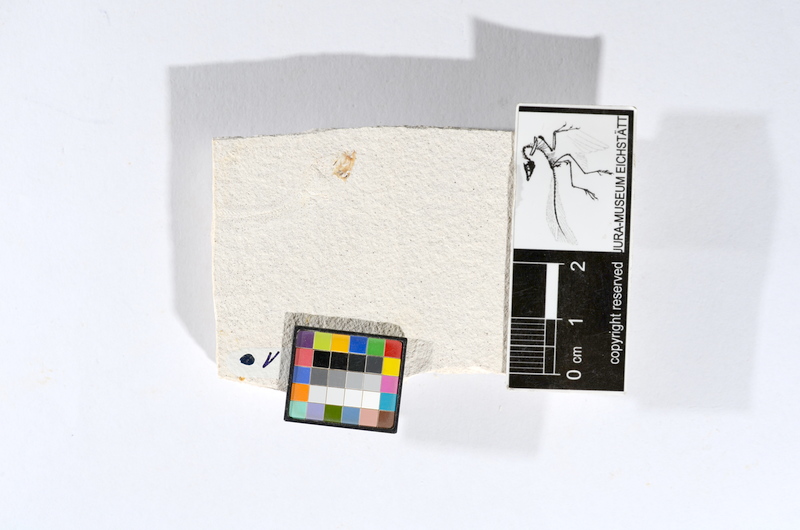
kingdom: Animalia
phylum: Chordata
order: Salmoniformes
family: Orthogonikleithridae
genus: Orthogonikleithrus
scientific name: Orthogonikleithrus hoelli
